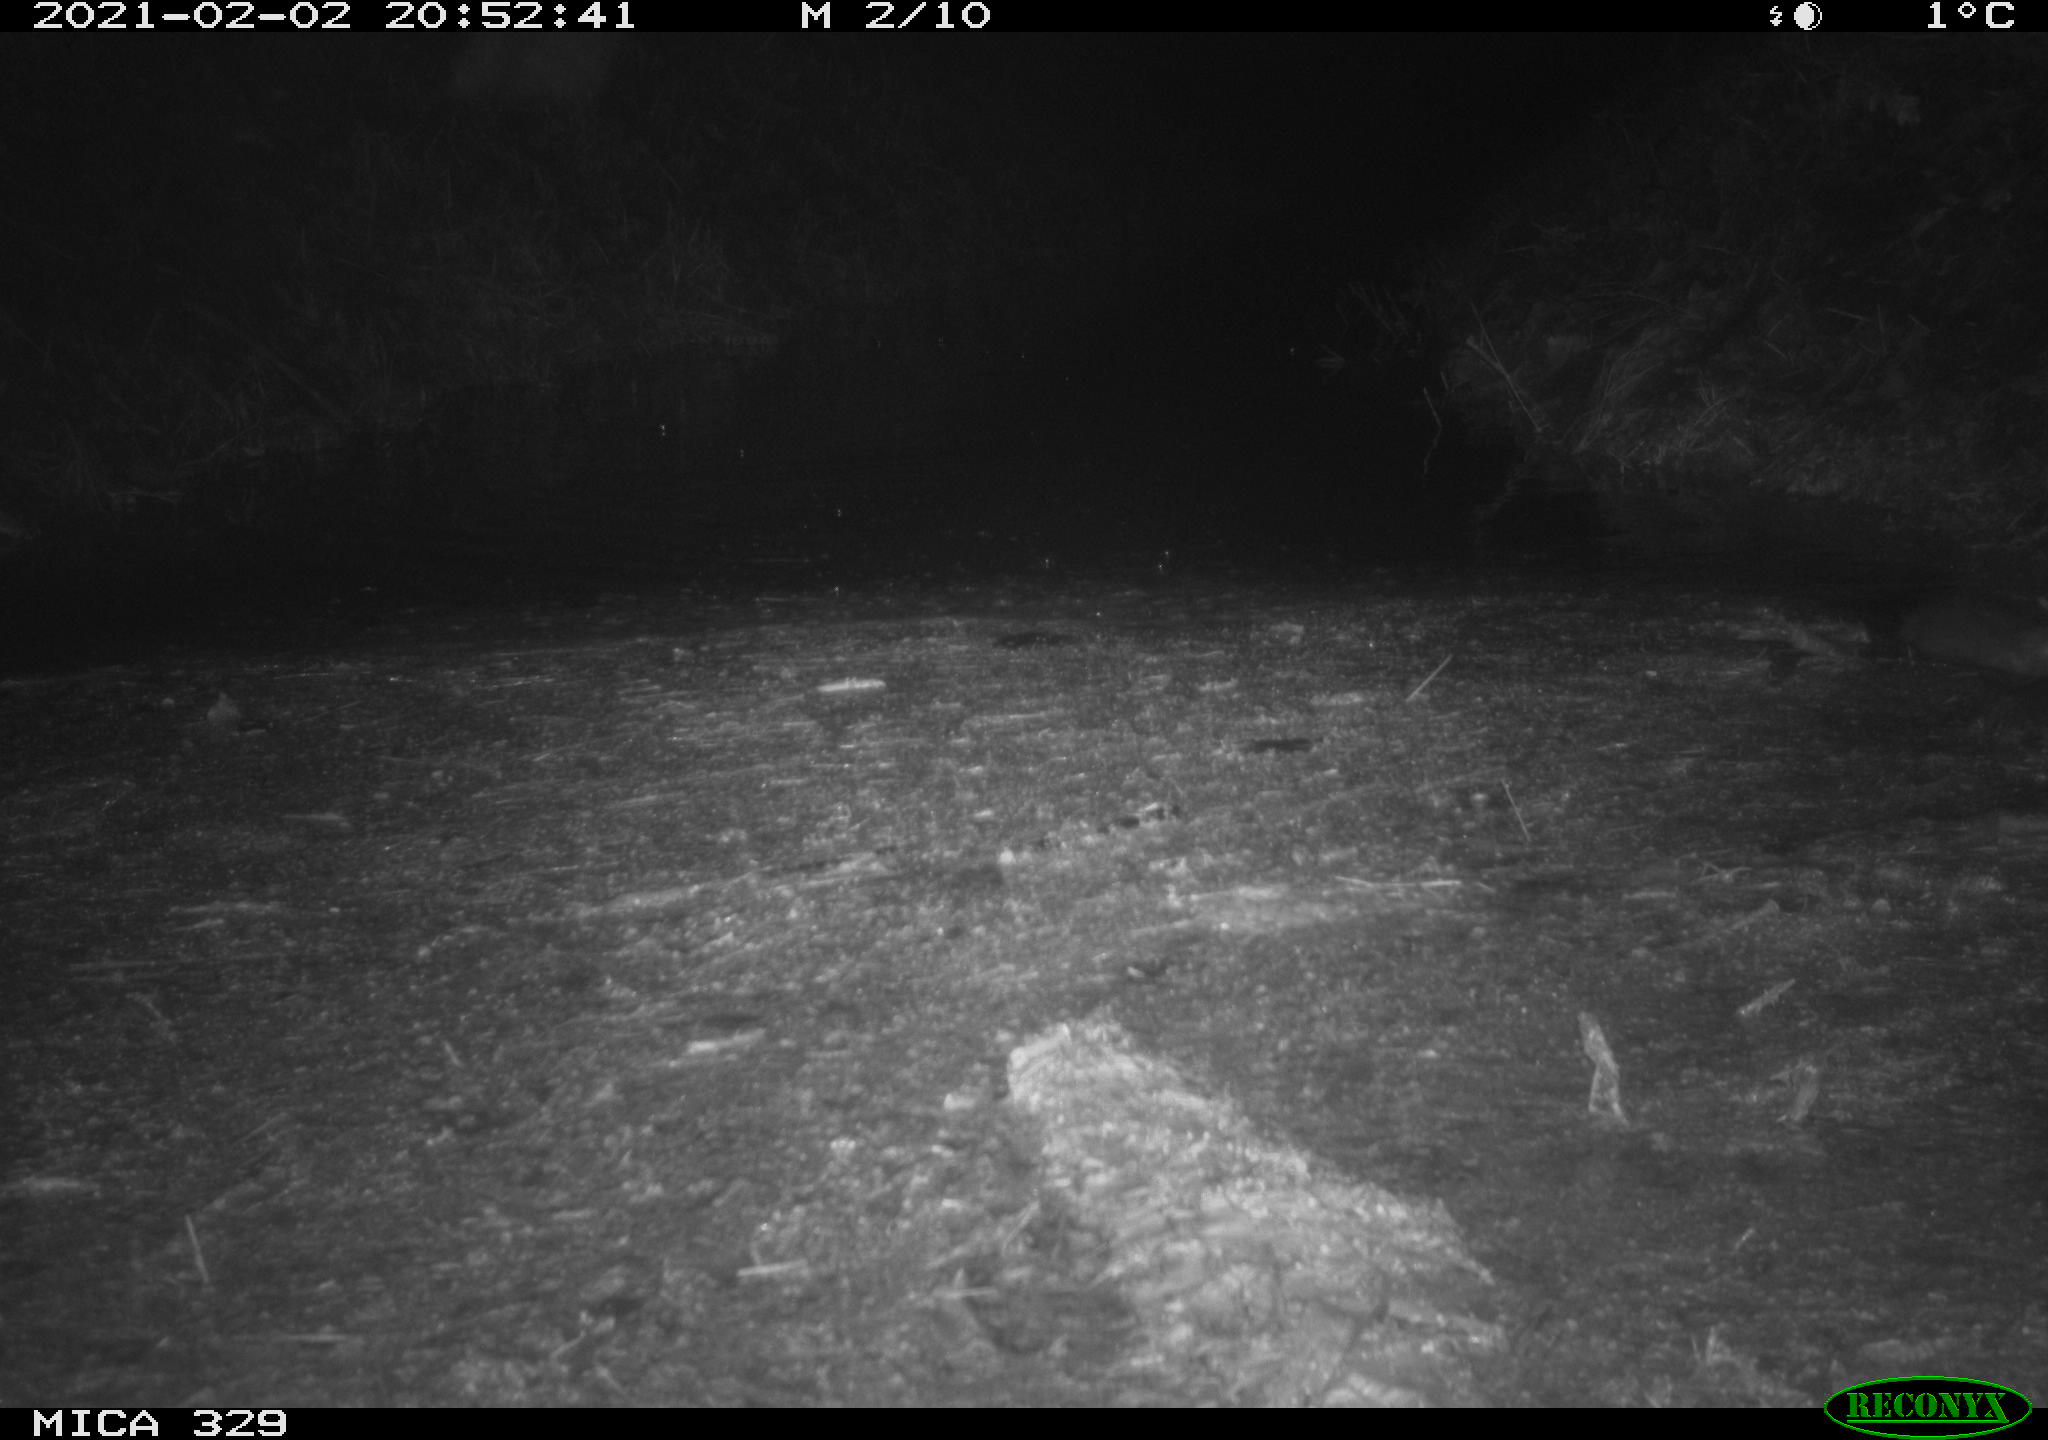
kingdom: Animalia
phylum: Chordata
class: Mammalia
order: Rodentia
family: Myocastoridae
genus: Myocastor
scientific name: Myocastor coypus
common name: Coypu
